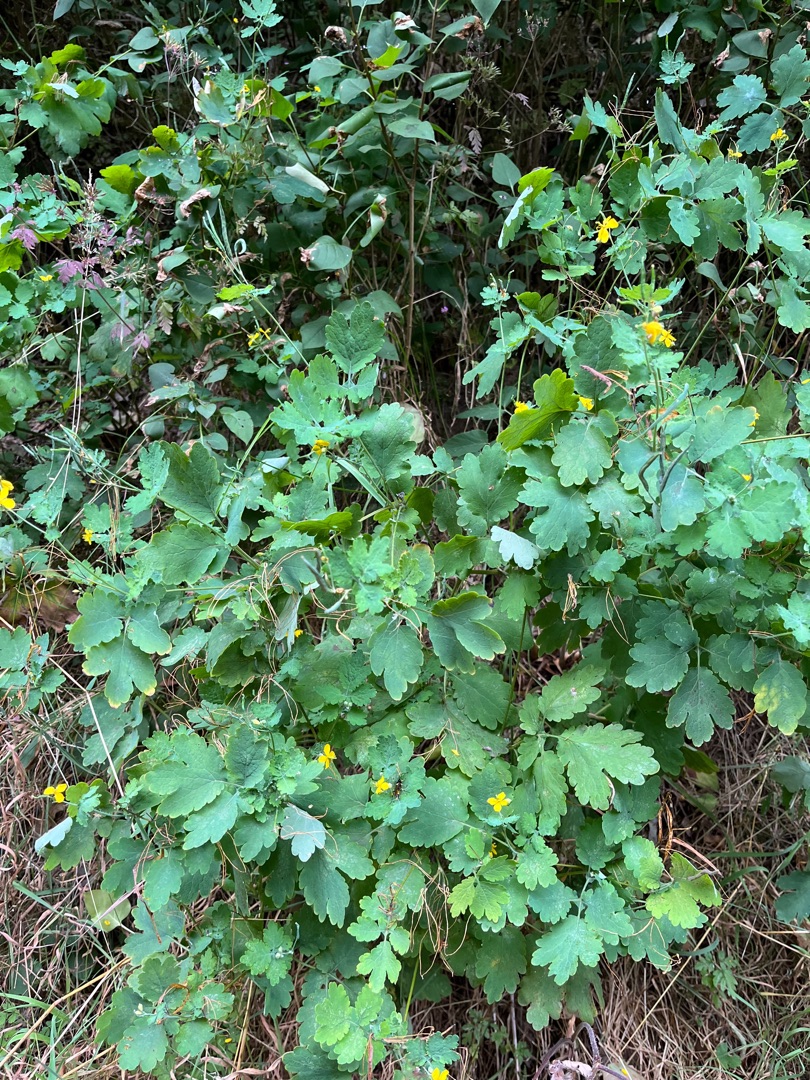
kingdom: Plantae
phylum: Tracheophyta
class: Magnoliopsida
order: Ranunculales
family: Papaveraceae
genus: Chelidonium
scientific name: Chelidonium majus
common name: Svaleurt
